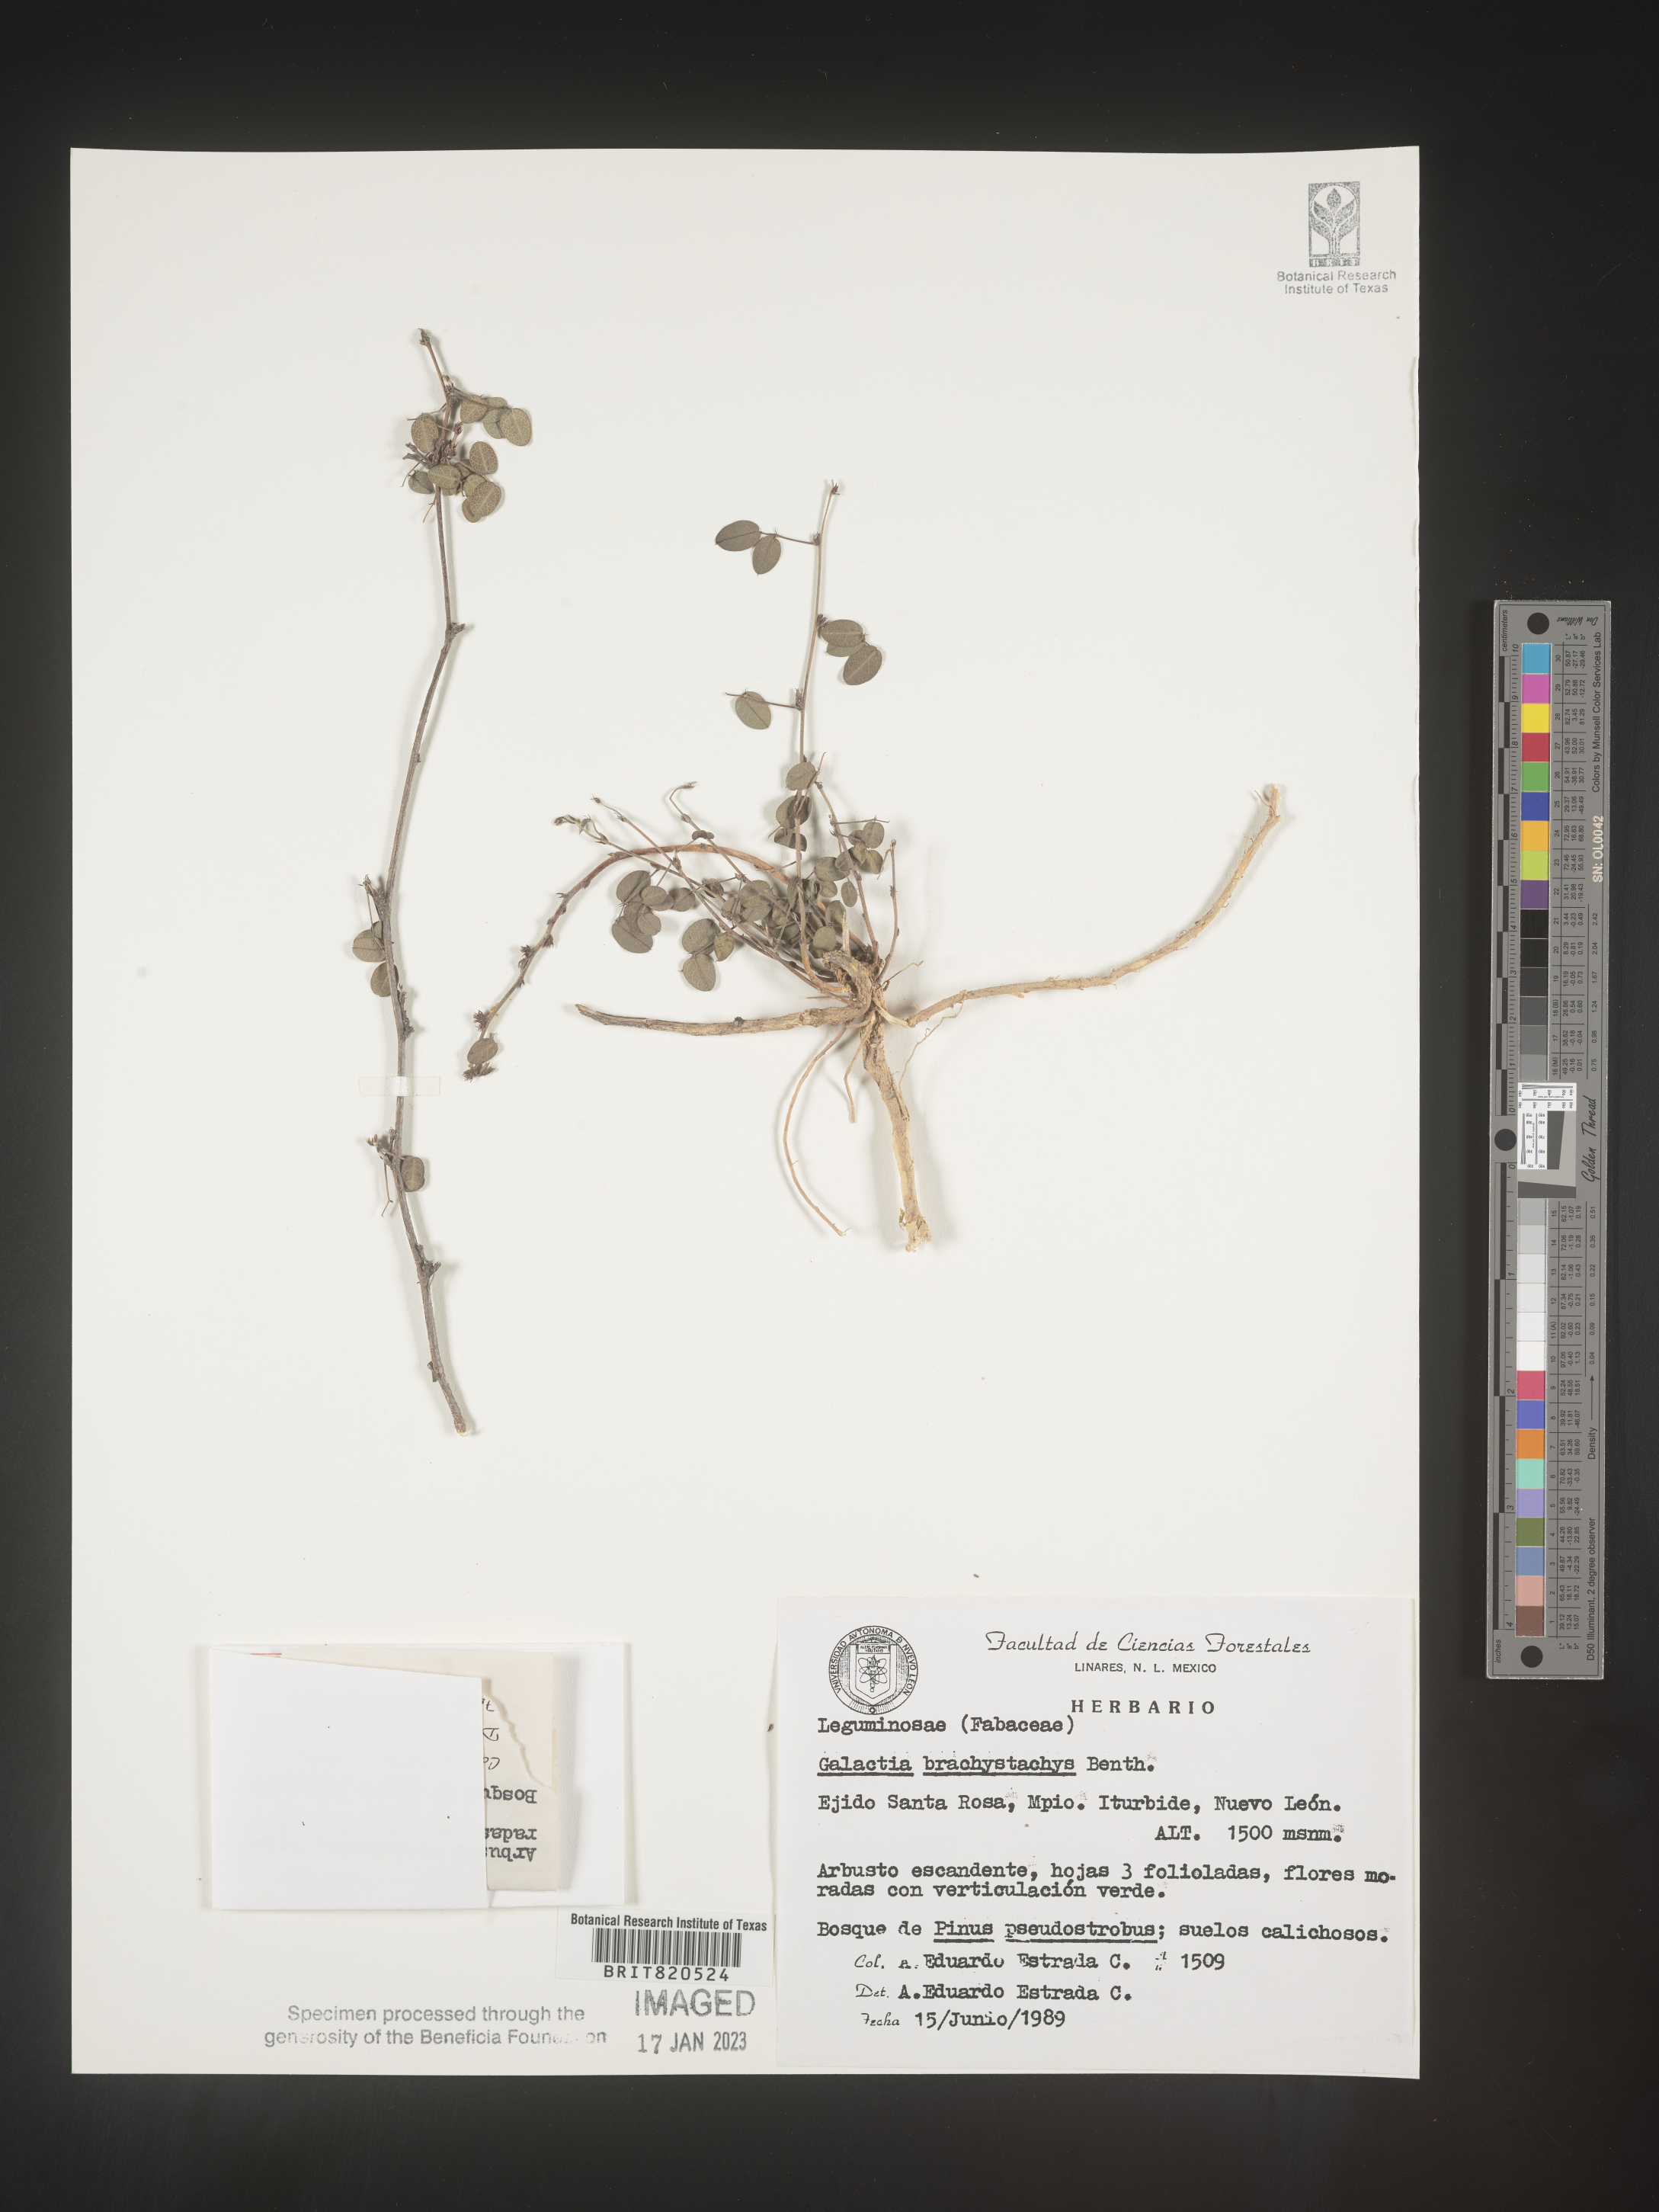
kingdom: Plantae
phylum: Tracheophyta
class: Magnoliopsida
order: Fabales
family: Fabaceae
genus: Nanogalactia
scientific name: Nanogalactia brachystachys
